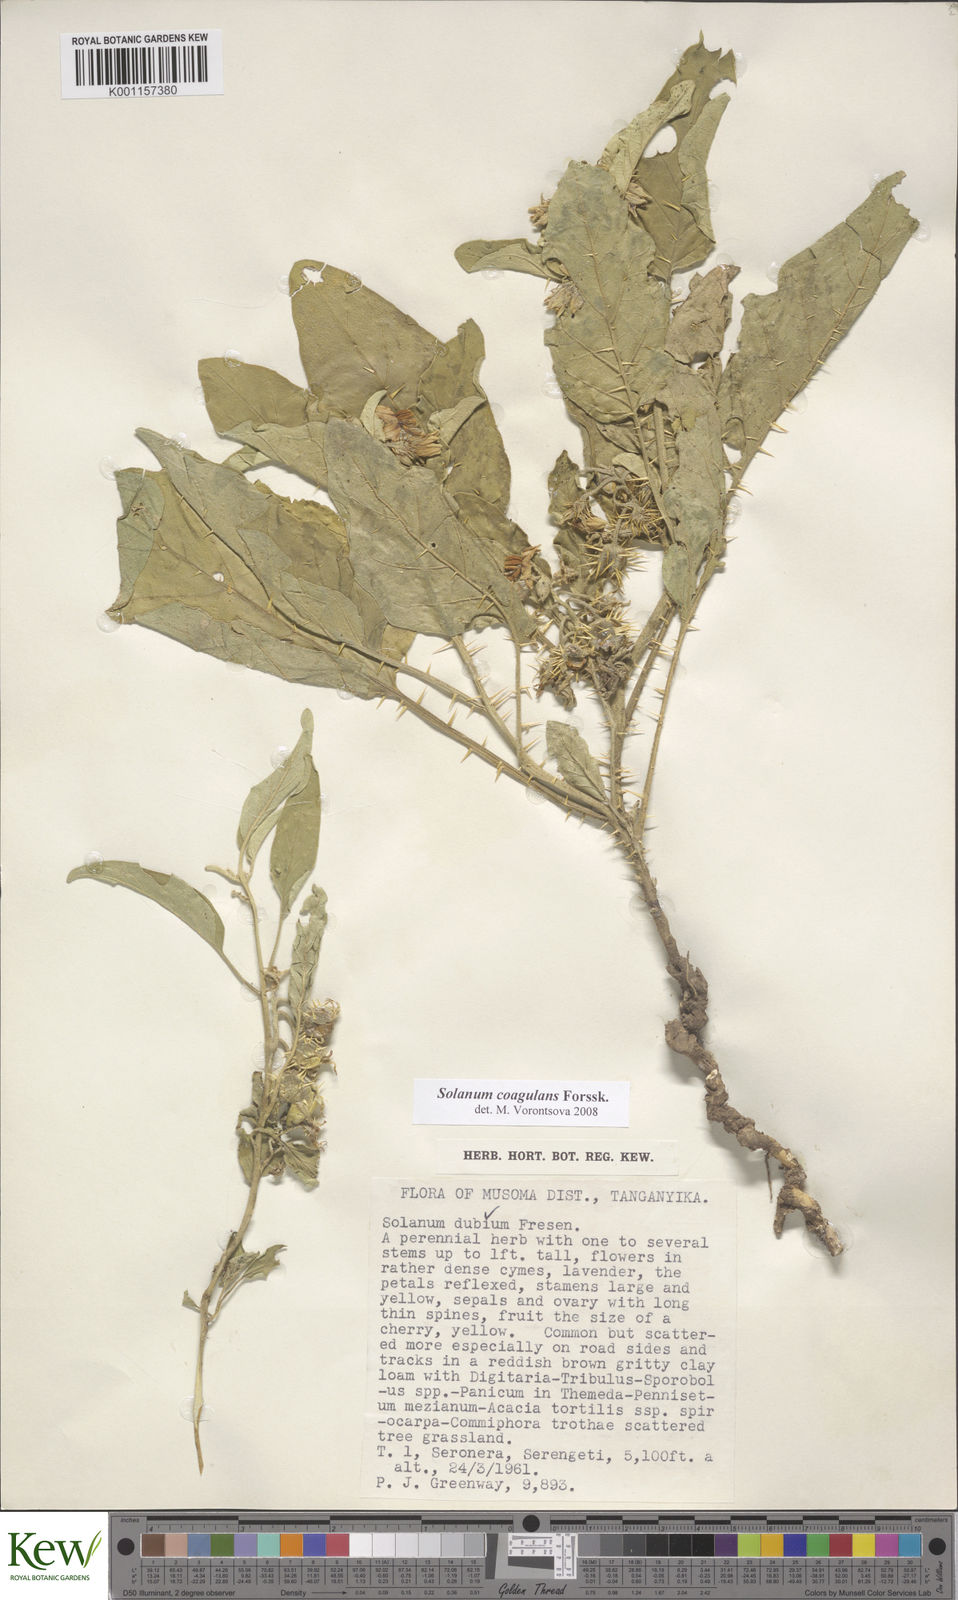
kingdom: Plantae
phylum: Tracheophyta
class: Magnoliopsida
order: Solanales
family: Solanaceae
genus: Solanum
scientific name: Solanum coagulans
